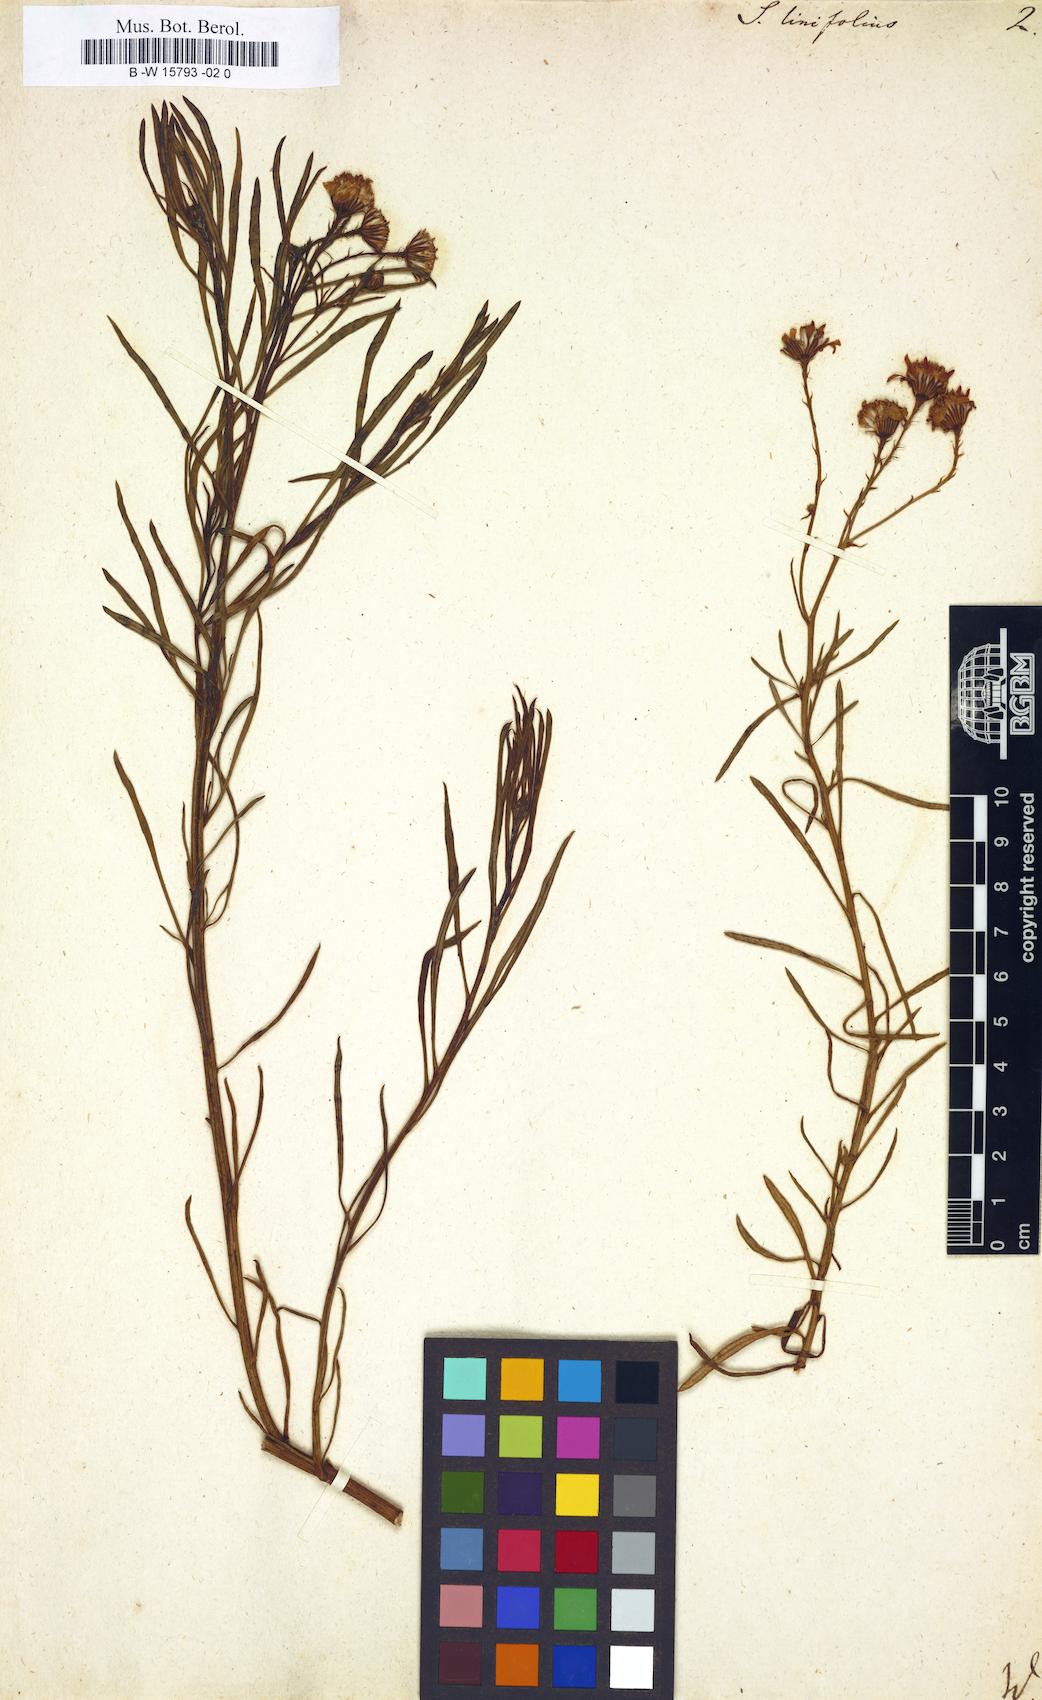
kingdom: Plantae
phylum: Tracheophyta
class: Magnoliopsida
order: Asterales
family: Asteraceae
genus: Senecio
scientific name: Senecio linifolius
